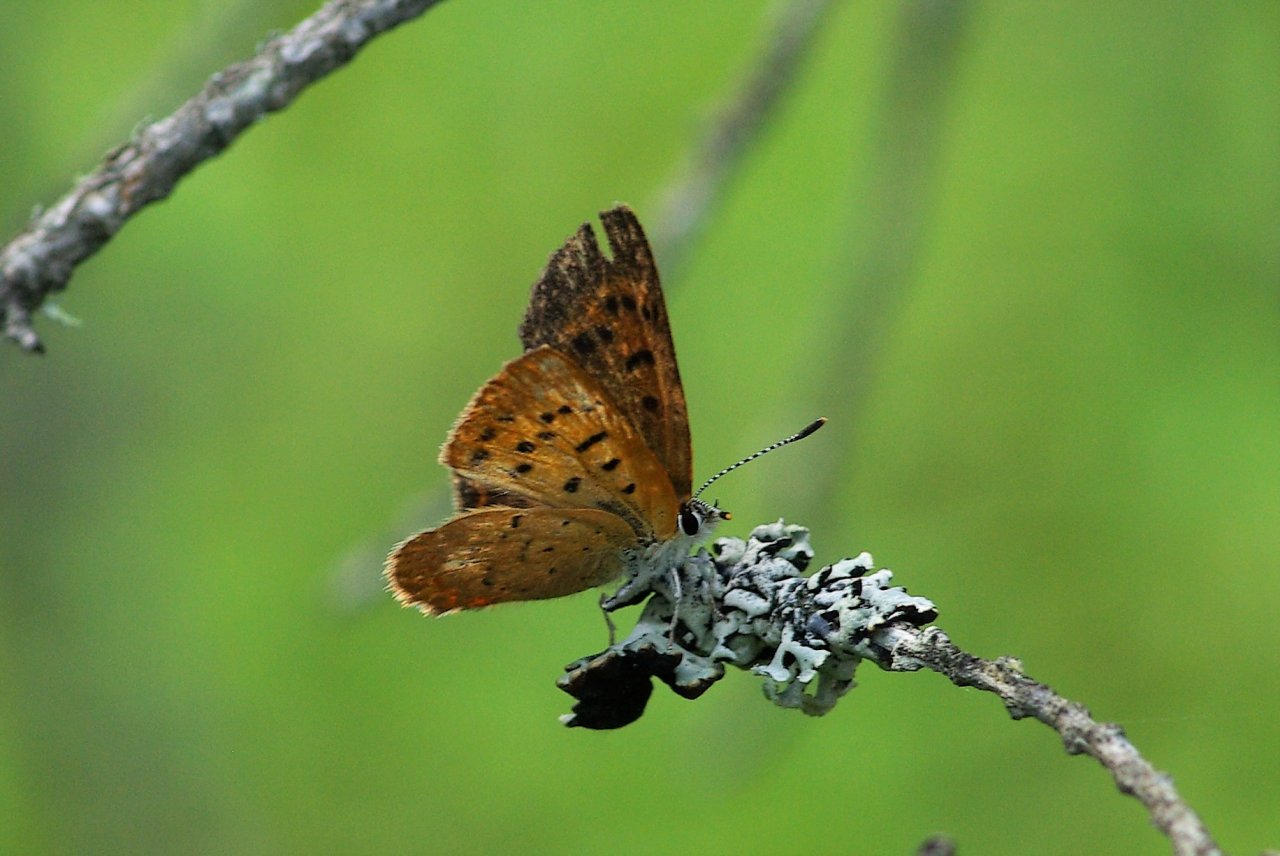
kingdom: Animalia
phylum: Arthropoda
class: Insecta
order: Lepidoptera
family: Lycaenidae
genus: Epidemia
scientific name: Epidemia dorcas
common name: Dorcas Copper
